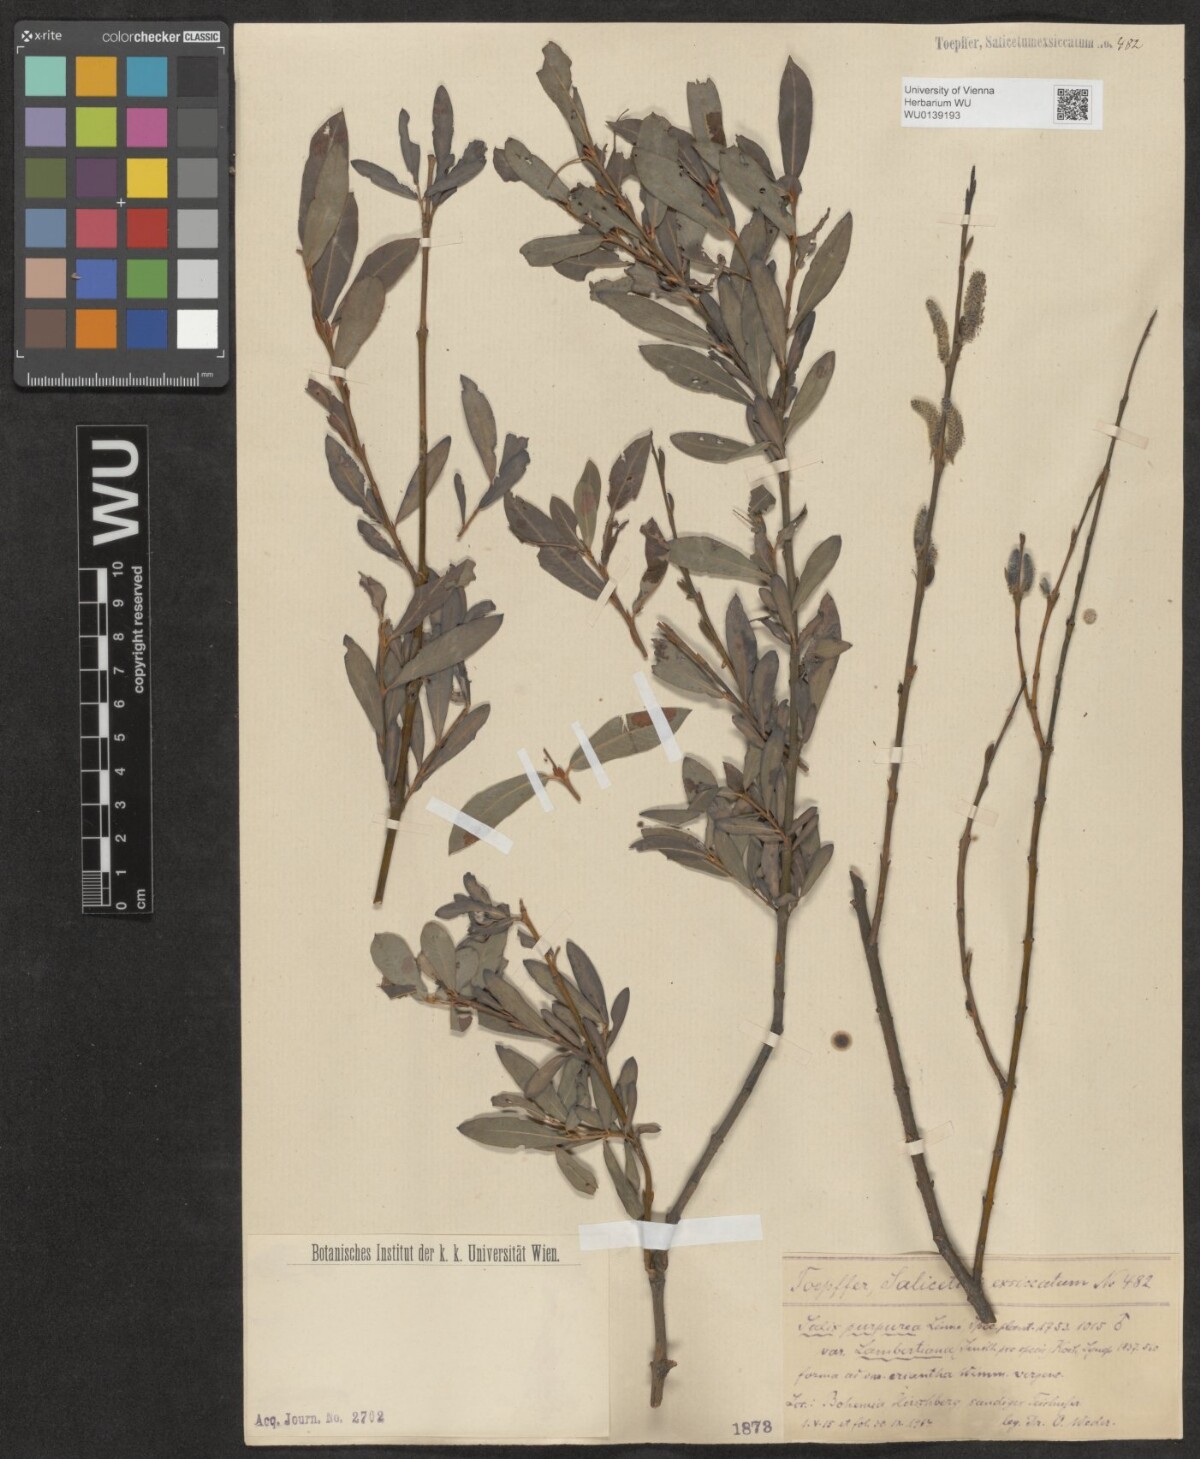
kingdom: Plantae
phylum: Tracheophyta
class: Magnoliopsida
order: Malpighiales
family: Salicaceae
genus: Salix
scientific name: Salix purpurea
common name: Purple willow
